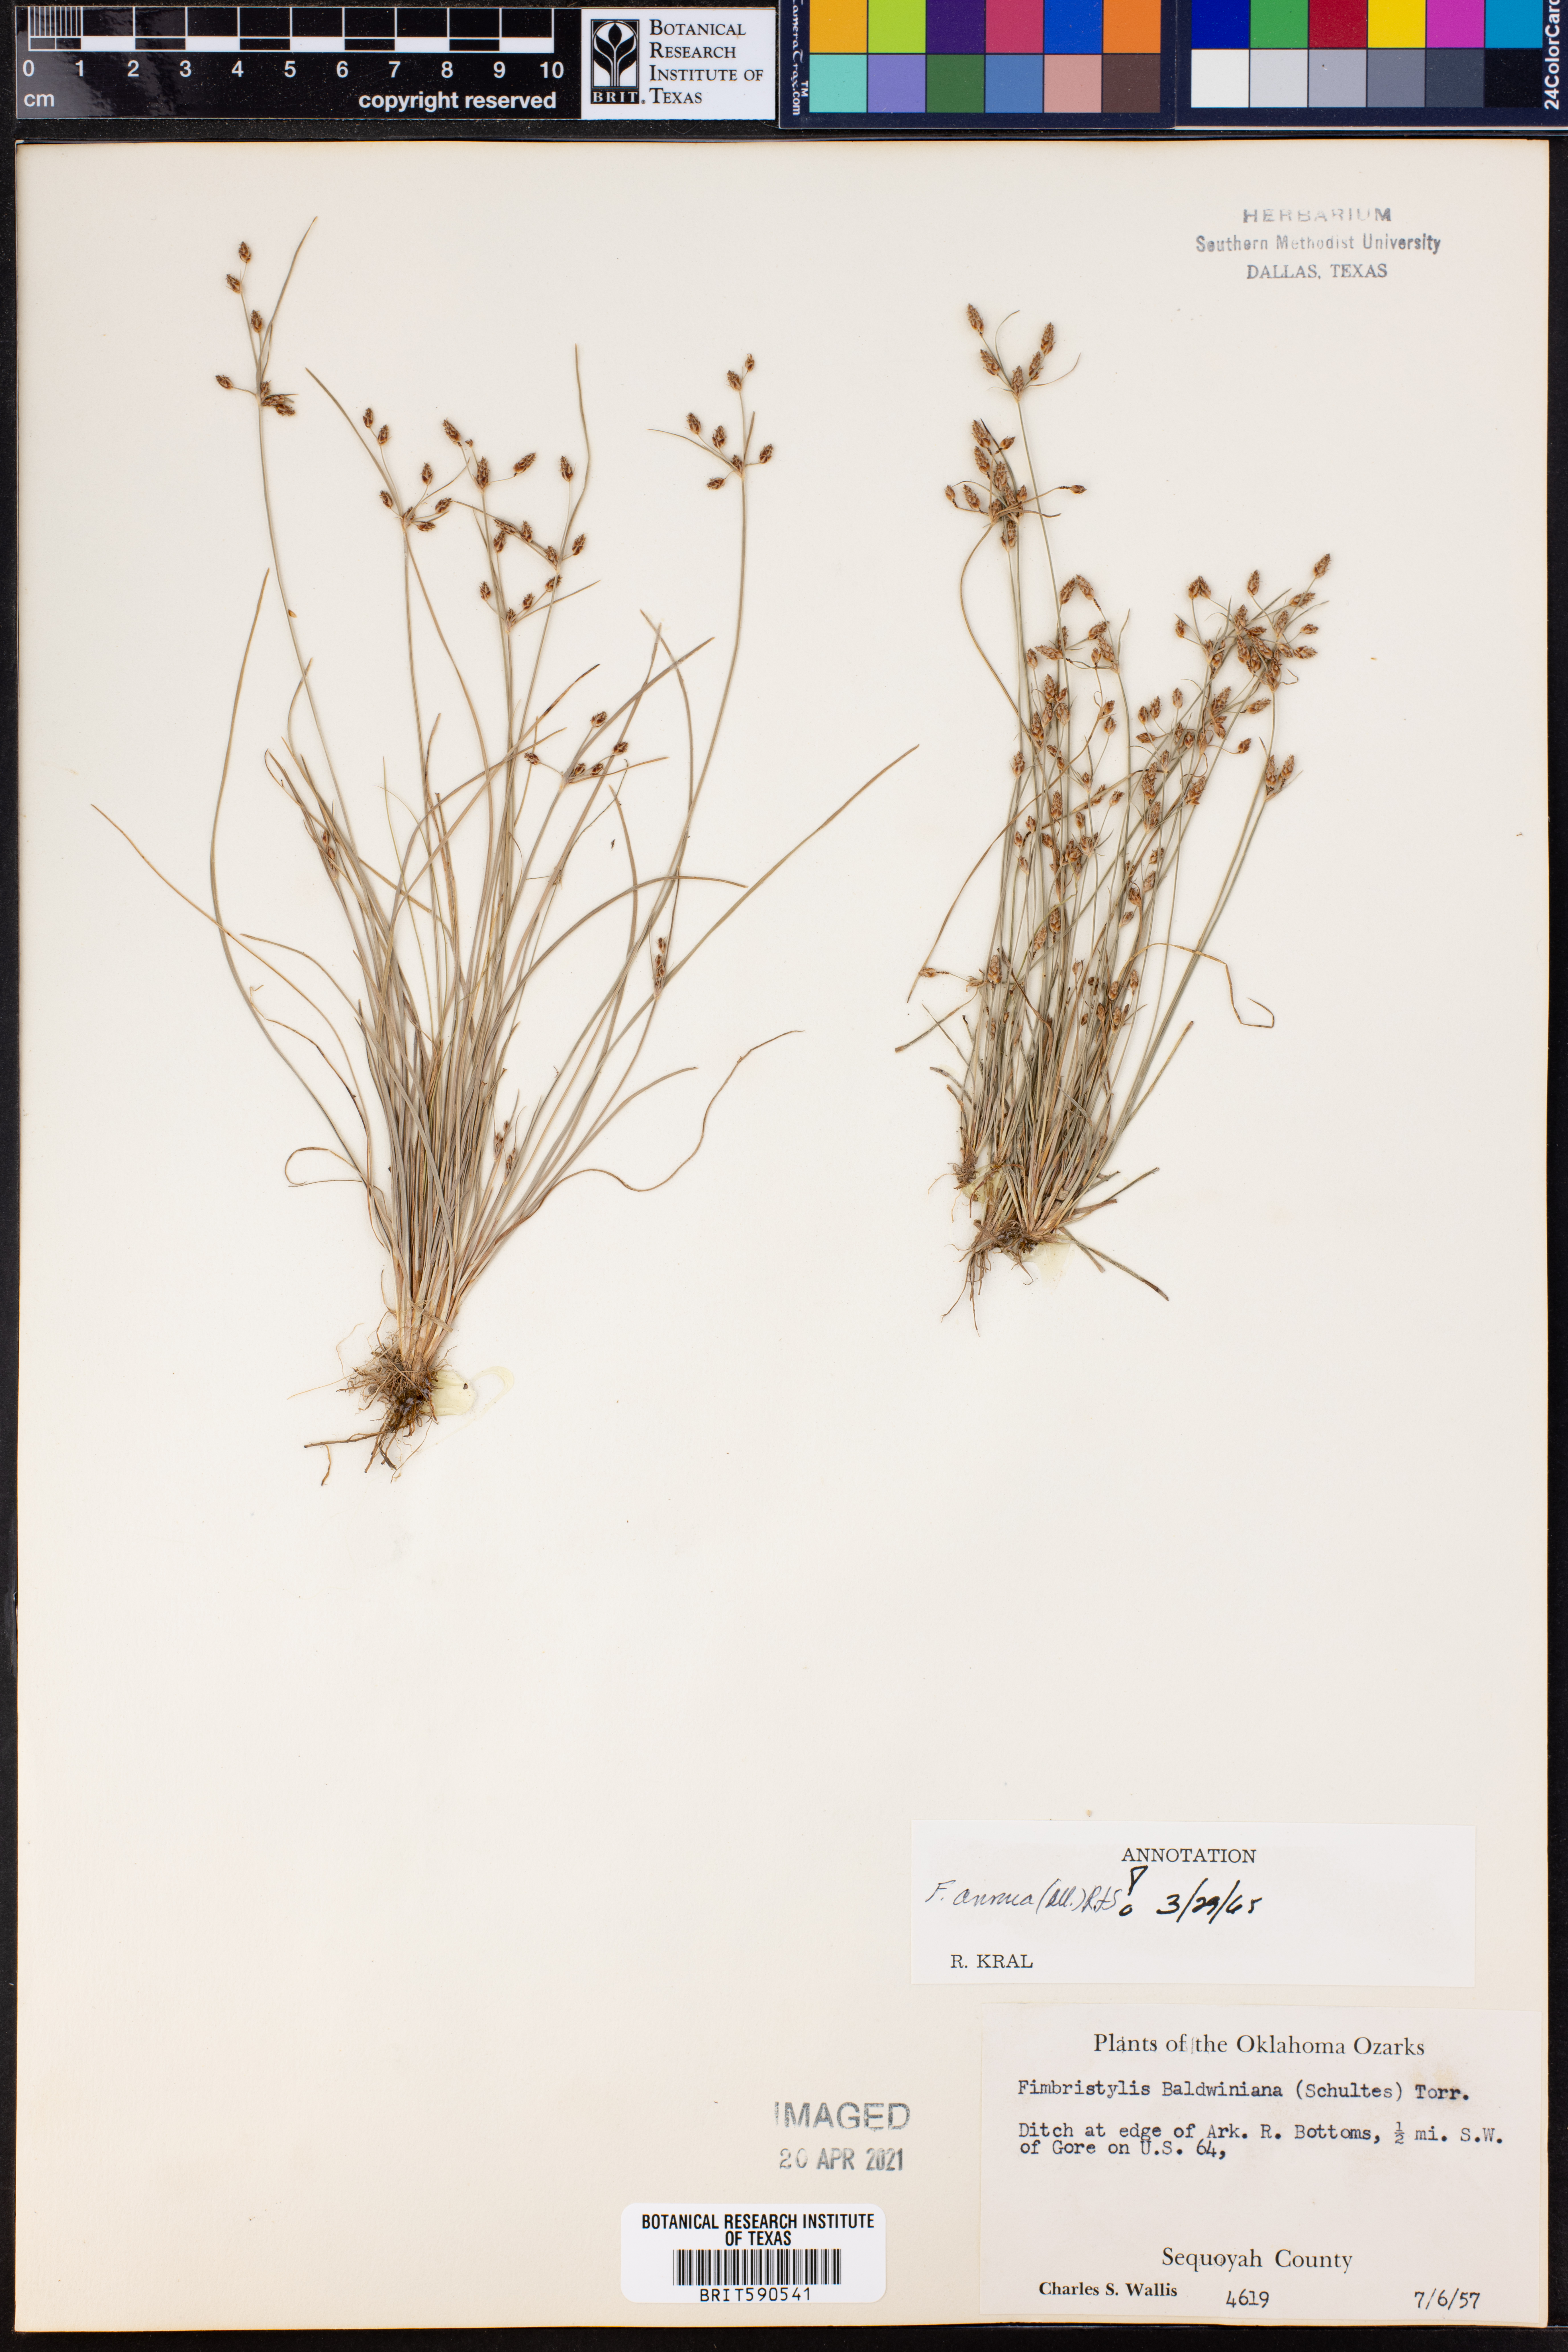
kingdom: Plantae
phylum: Tracheophyta
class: Liliopsida
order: Poales
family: Cyperaceae
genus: Fimbristylis
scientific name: Fimbristylis dichotoma
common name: Forked fimbry
